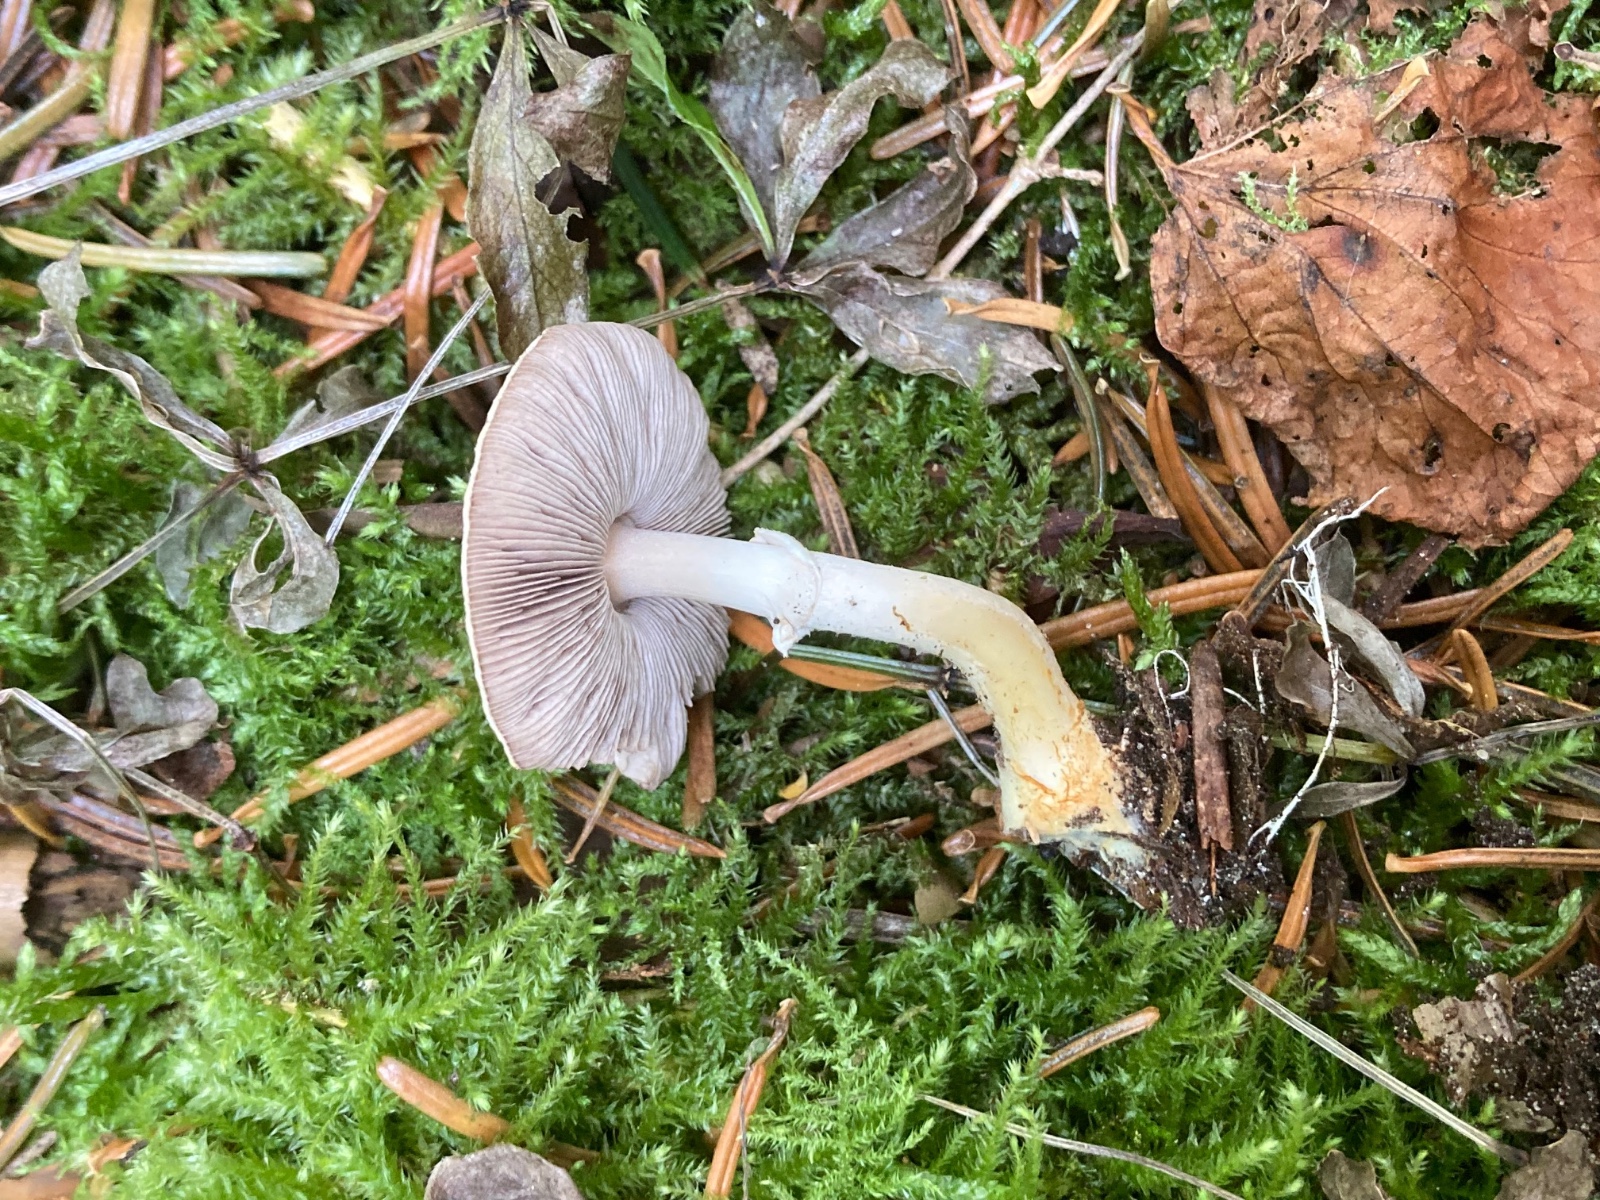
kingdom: Fungi
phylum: Basidiomycota
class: Agaricomycetes
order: Agaricales
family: Agaricaceae
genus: Agaricus
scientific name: Agaricus dulcidulus
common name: blegrød champignon
